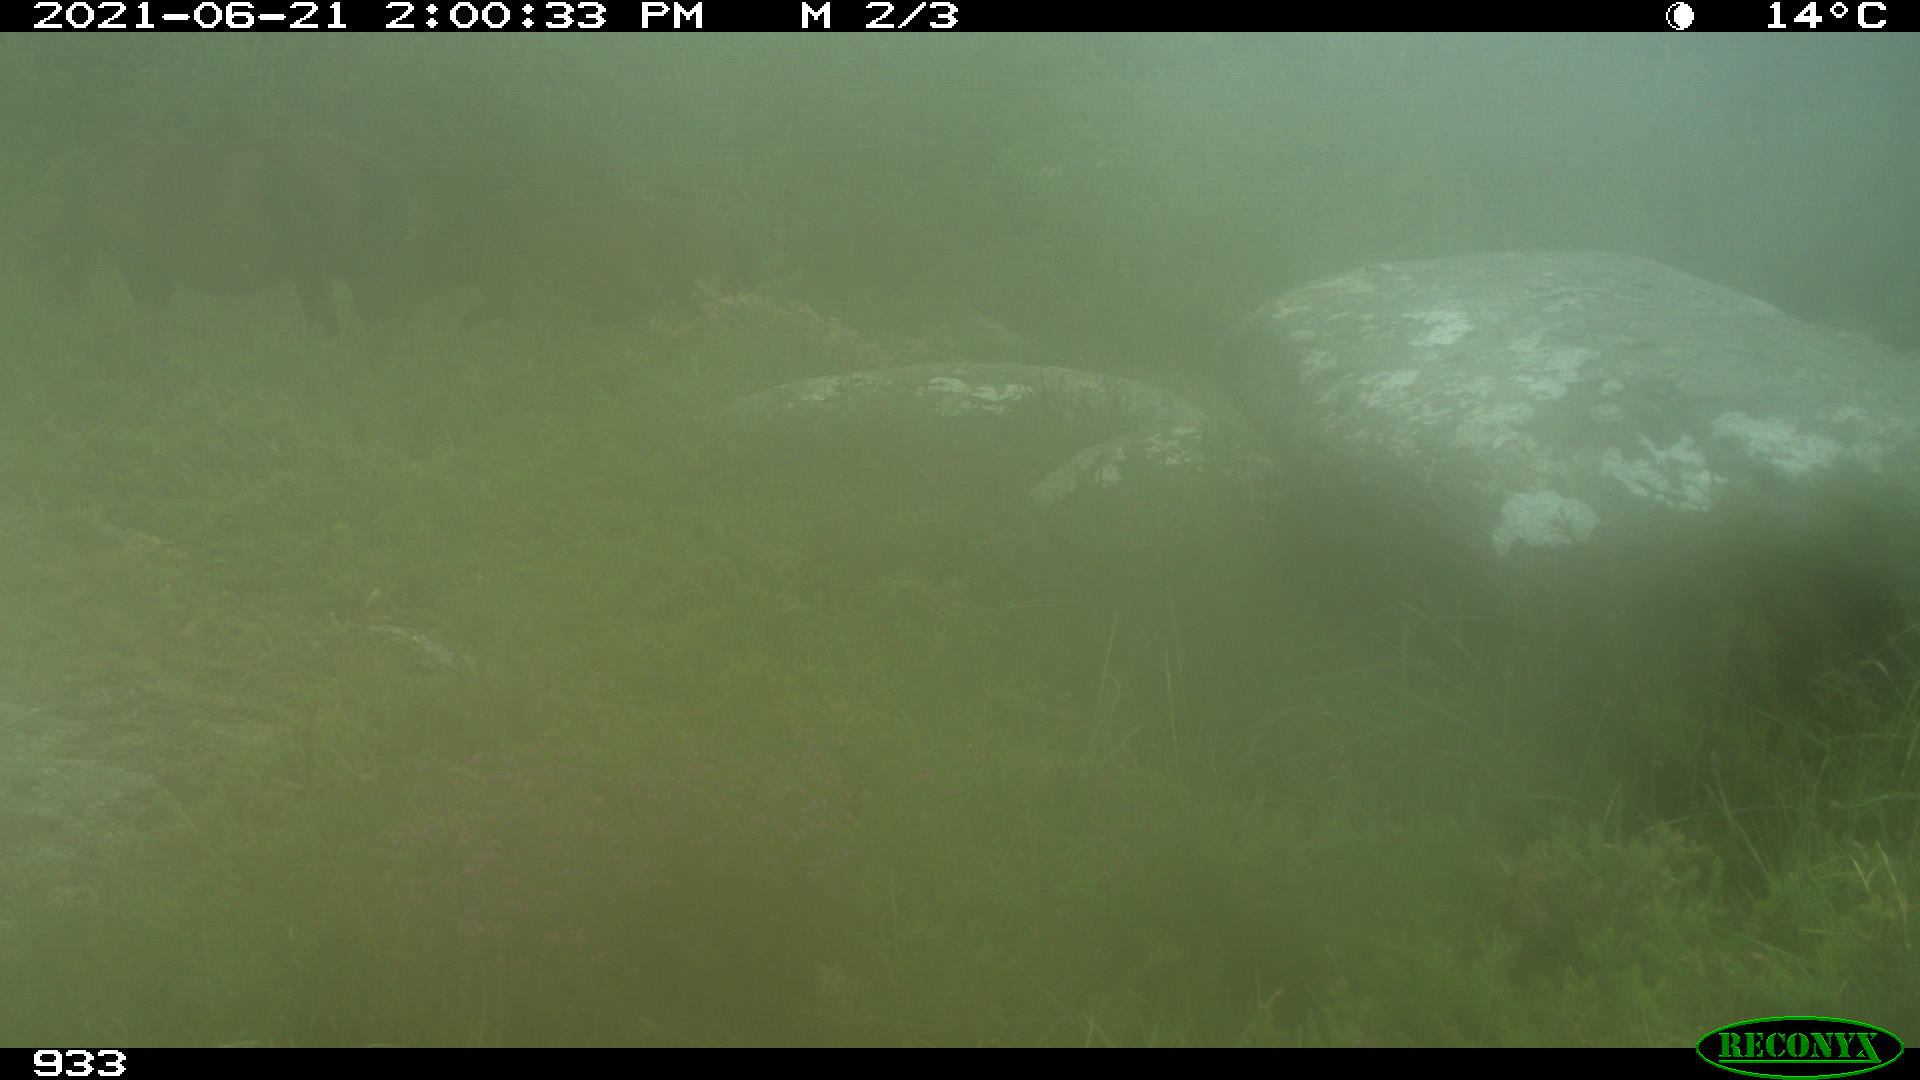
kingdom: Animalia
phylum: Chordata
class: Mammalia
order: Perissodactyla
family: Equidae
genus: Equus
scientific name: Equus caballus
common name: Horse
